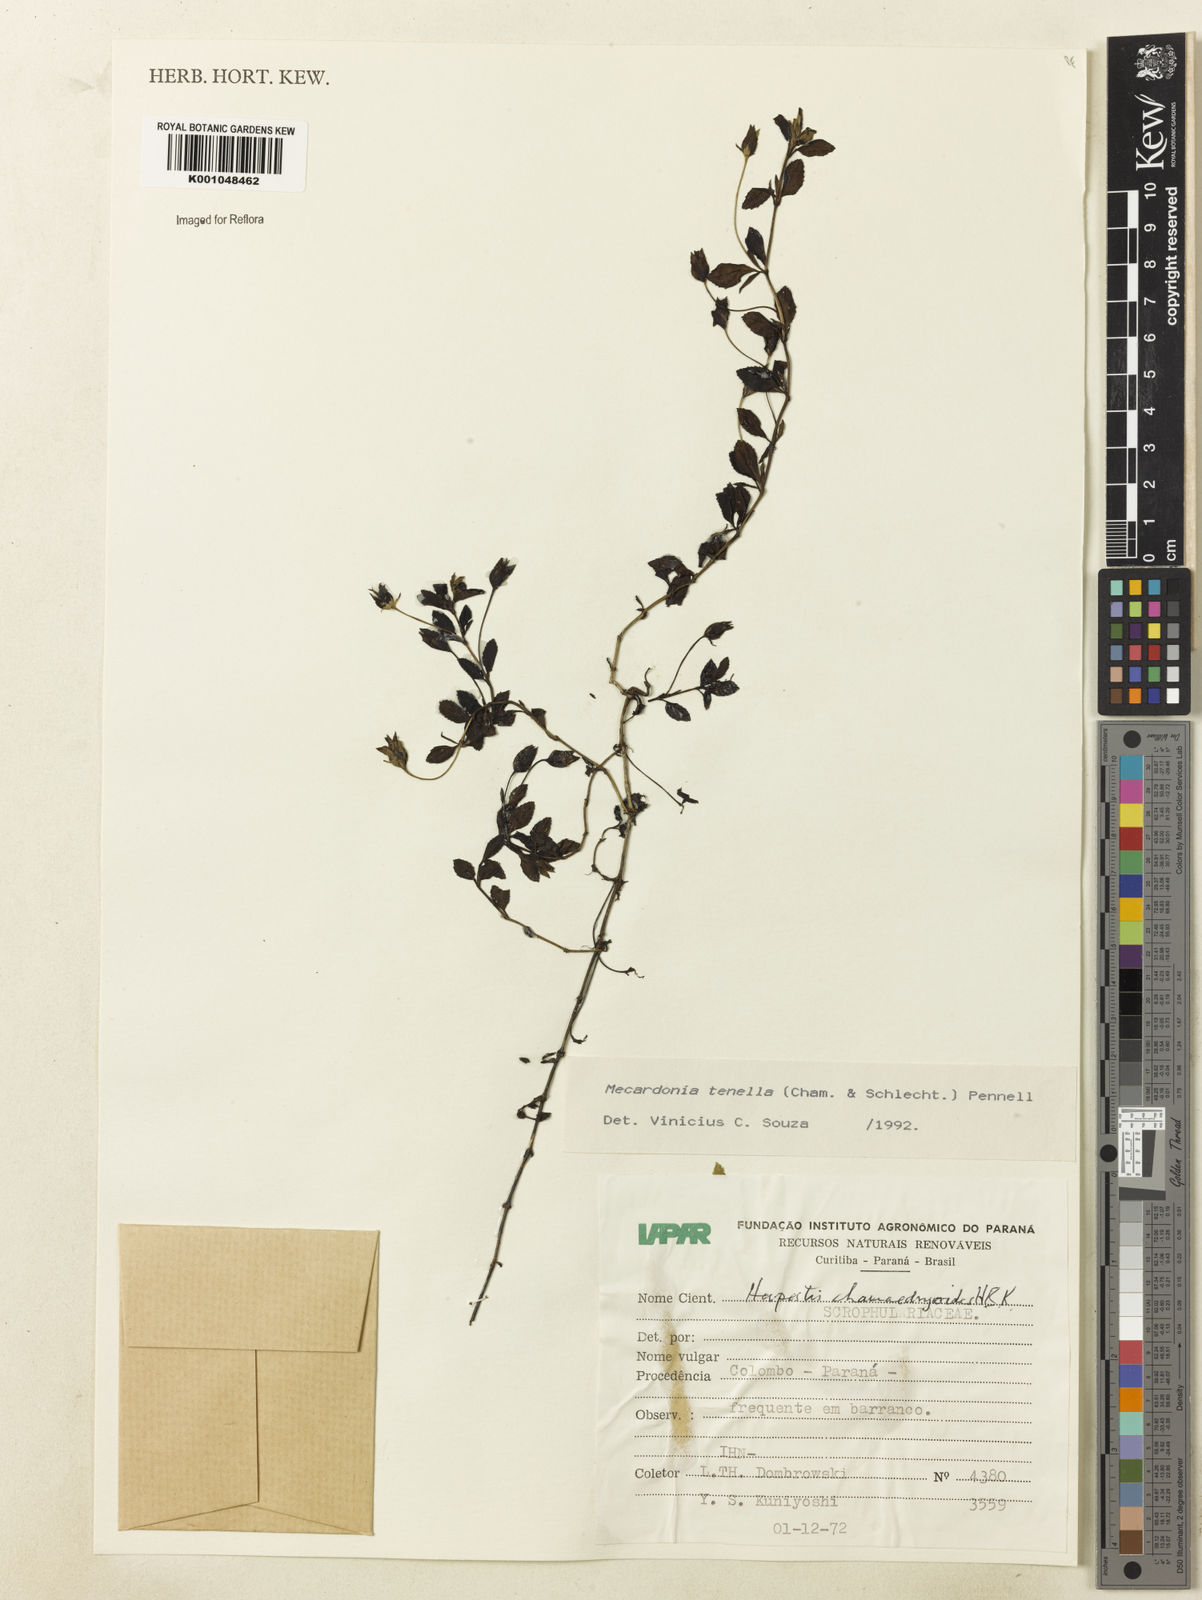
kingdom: Plantae
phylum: Tracheophyta
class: Magnoliopsida
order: Lamiales
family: Plantaginaceae
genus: Mecardonia
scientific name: Mecardonia procumbens
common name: Baby jump-up
